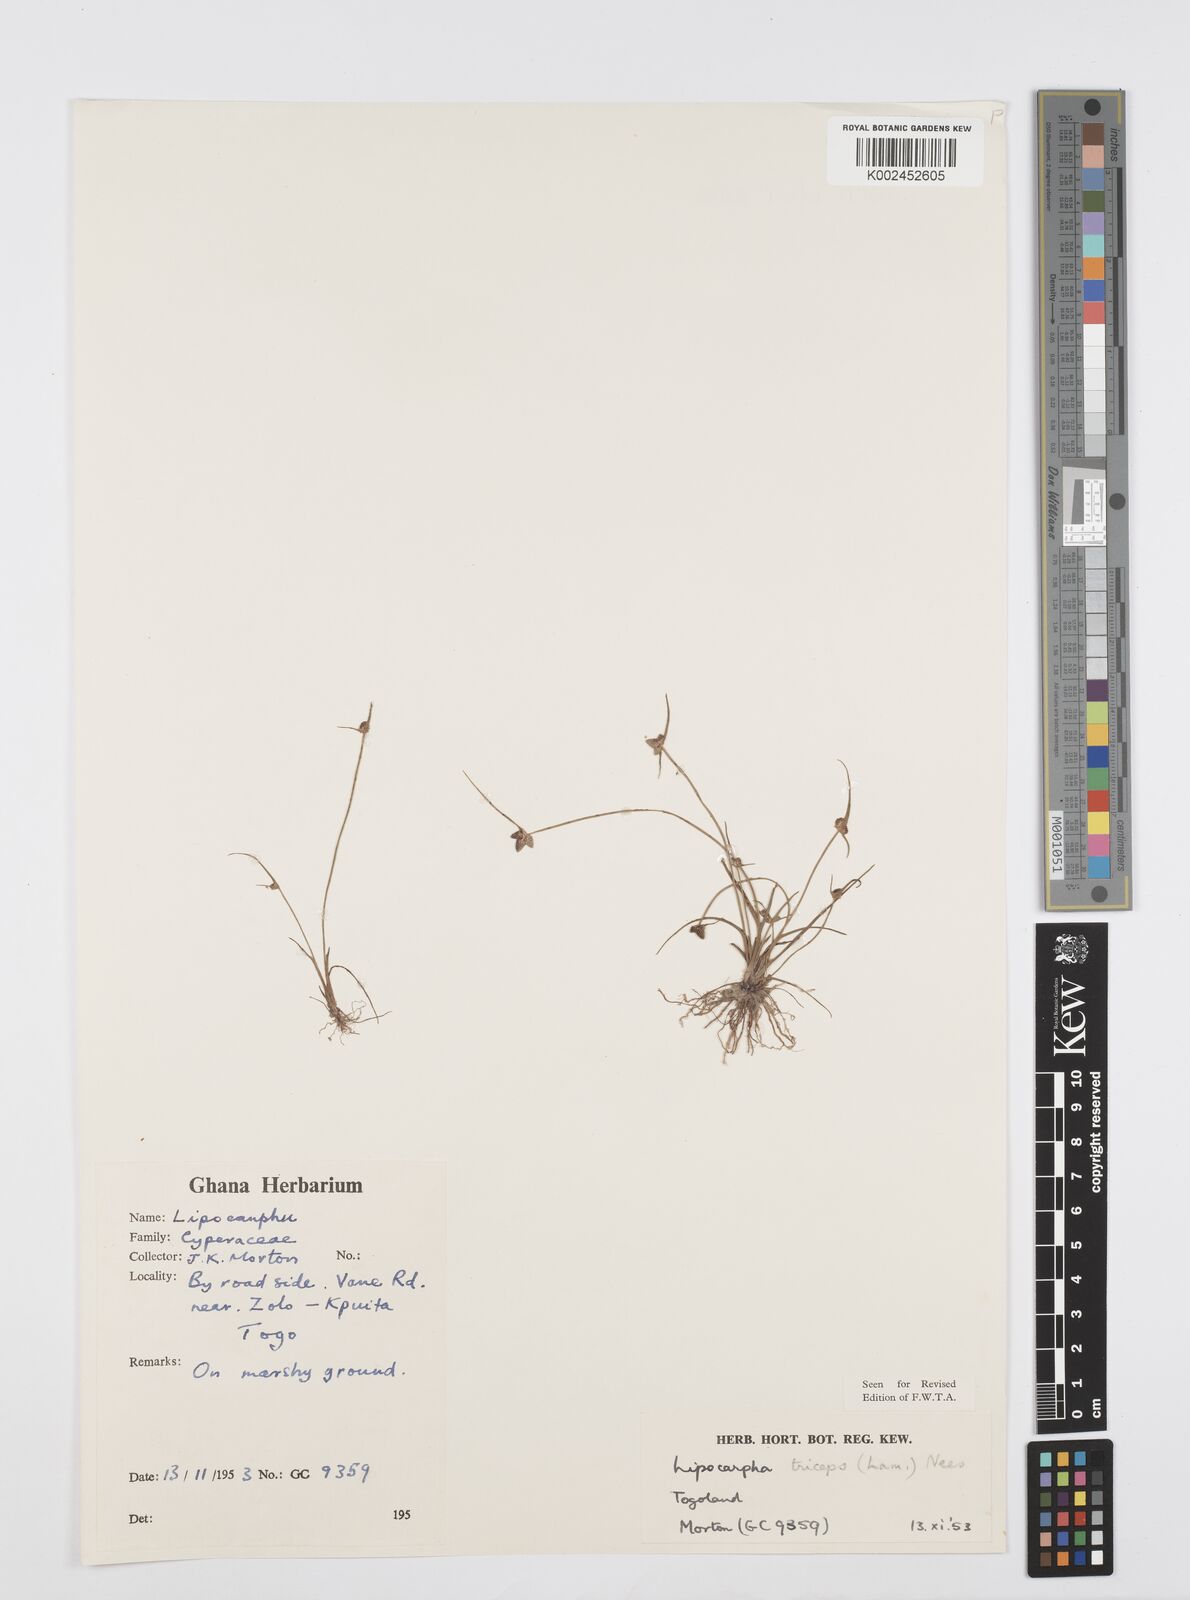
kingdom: Plantae
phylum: Tracheophyta
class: Liliopsida
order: Poales
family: Cyperaceae
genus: Cyperus
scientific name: Cyperus sphacelatus
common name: Roadside flatsedge
